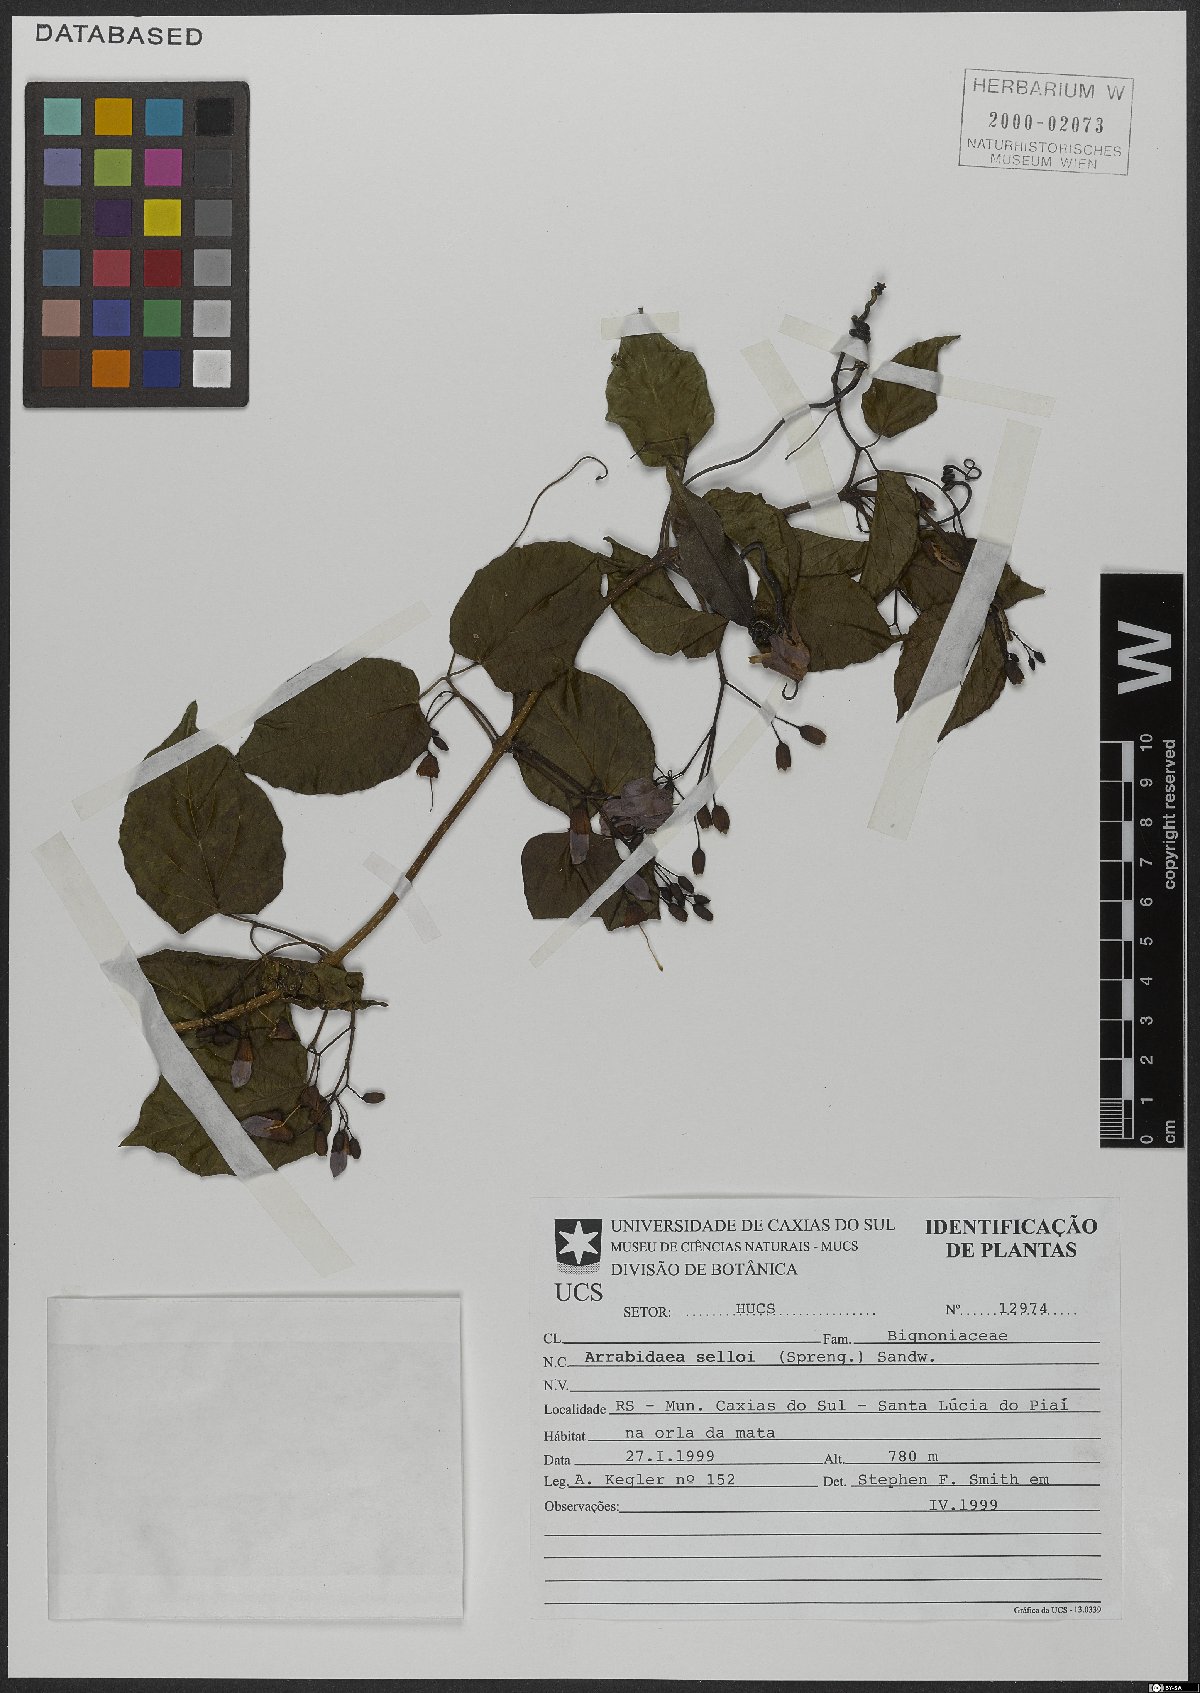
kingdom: Plantae
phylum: Tracheophyta
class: Magnoliopsida
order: Lamiales
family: Bignoniaceae
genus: Tanaecium
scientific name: Tanaecium selloi
